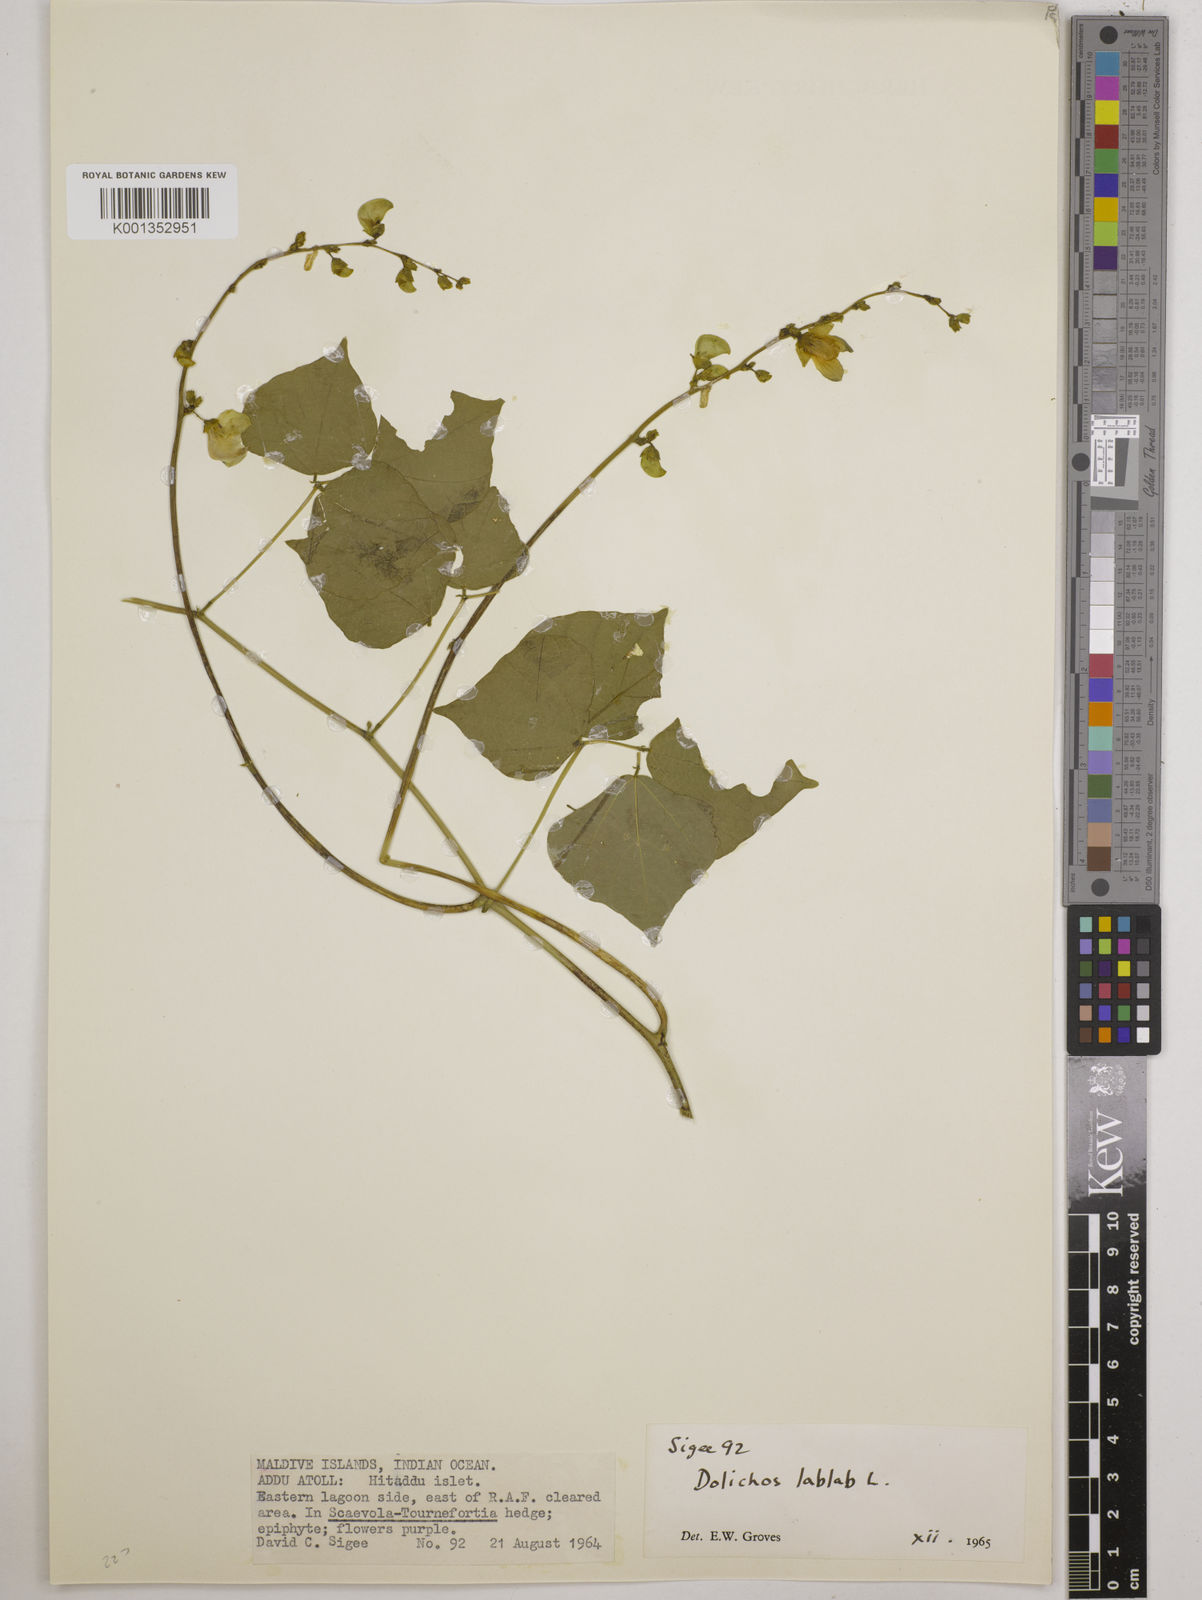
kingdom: Plantae
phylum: Tracheophyta
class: Magnoliopsida
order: Fabales
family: Fabaceae
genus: Lablab
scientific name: Lablab purpureus
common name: Lablab-bean
